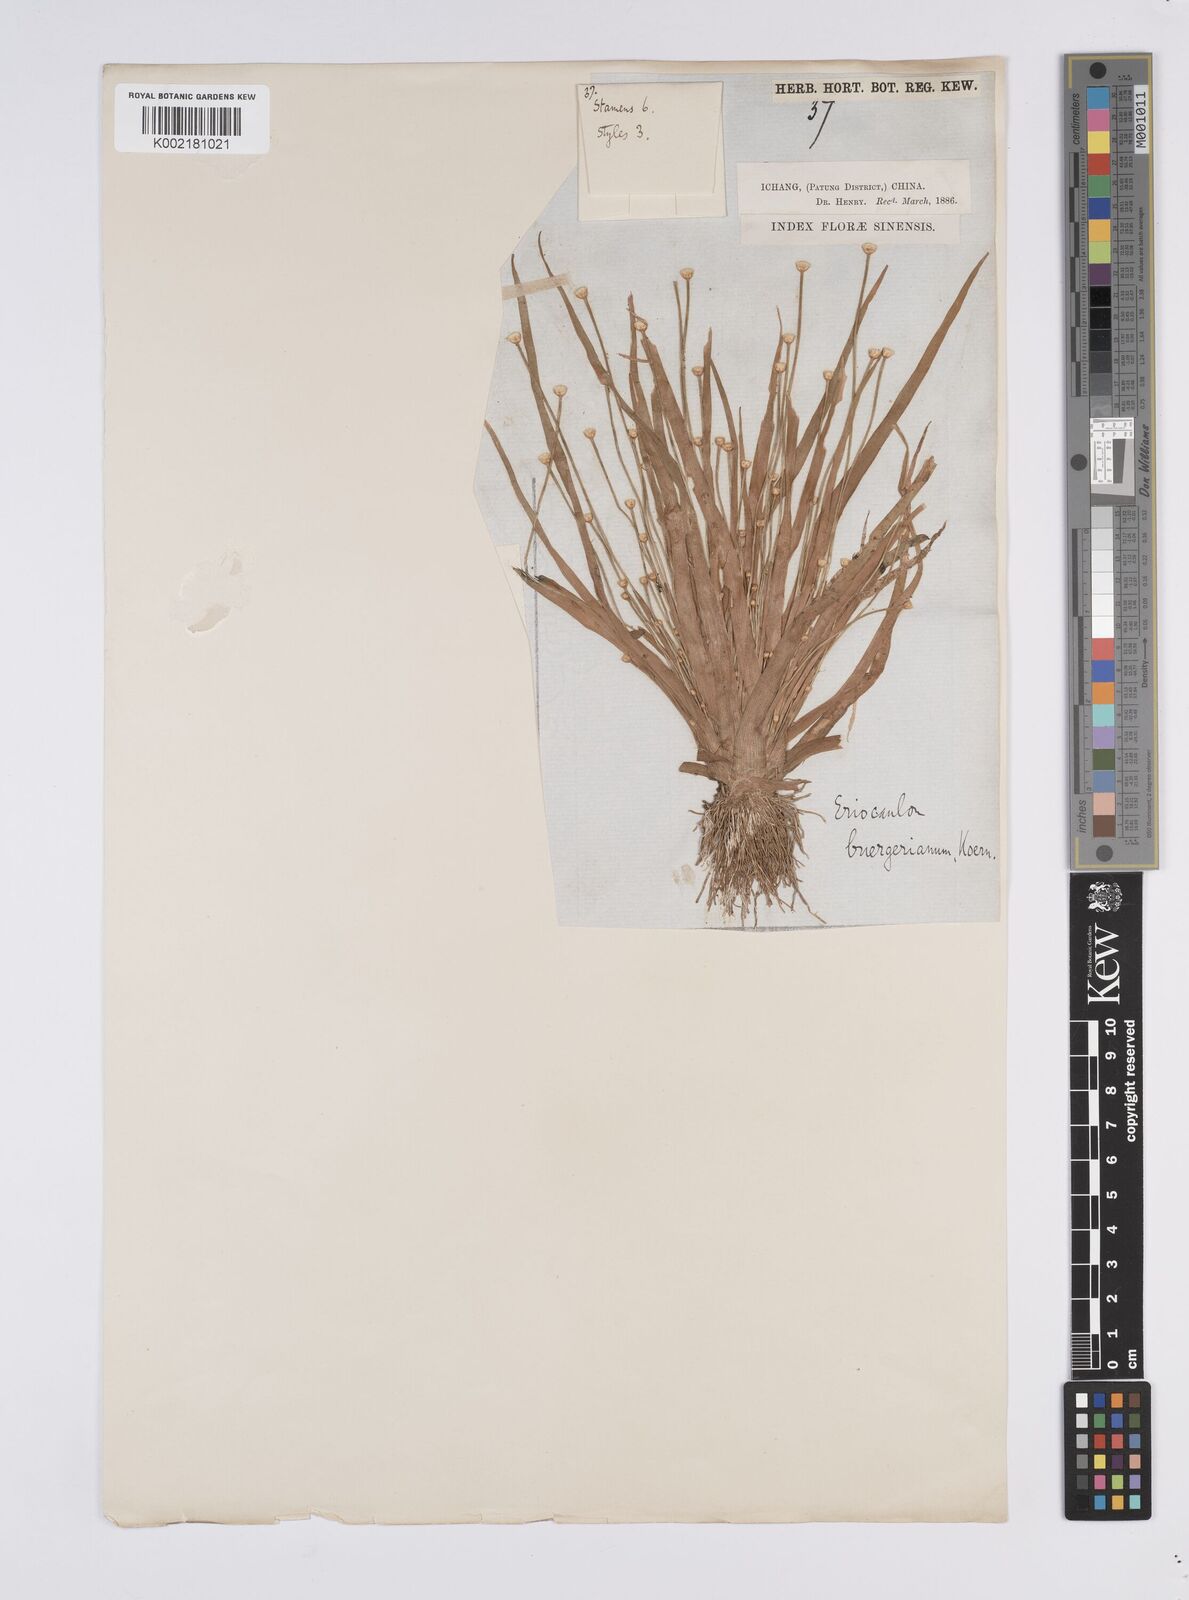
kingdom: Plantae
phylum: Tracheophyta
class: Liliopsida
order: Poales
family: Eriocaulaceae
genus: Eriocaulon
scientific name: Eriocaulon buergerianum
